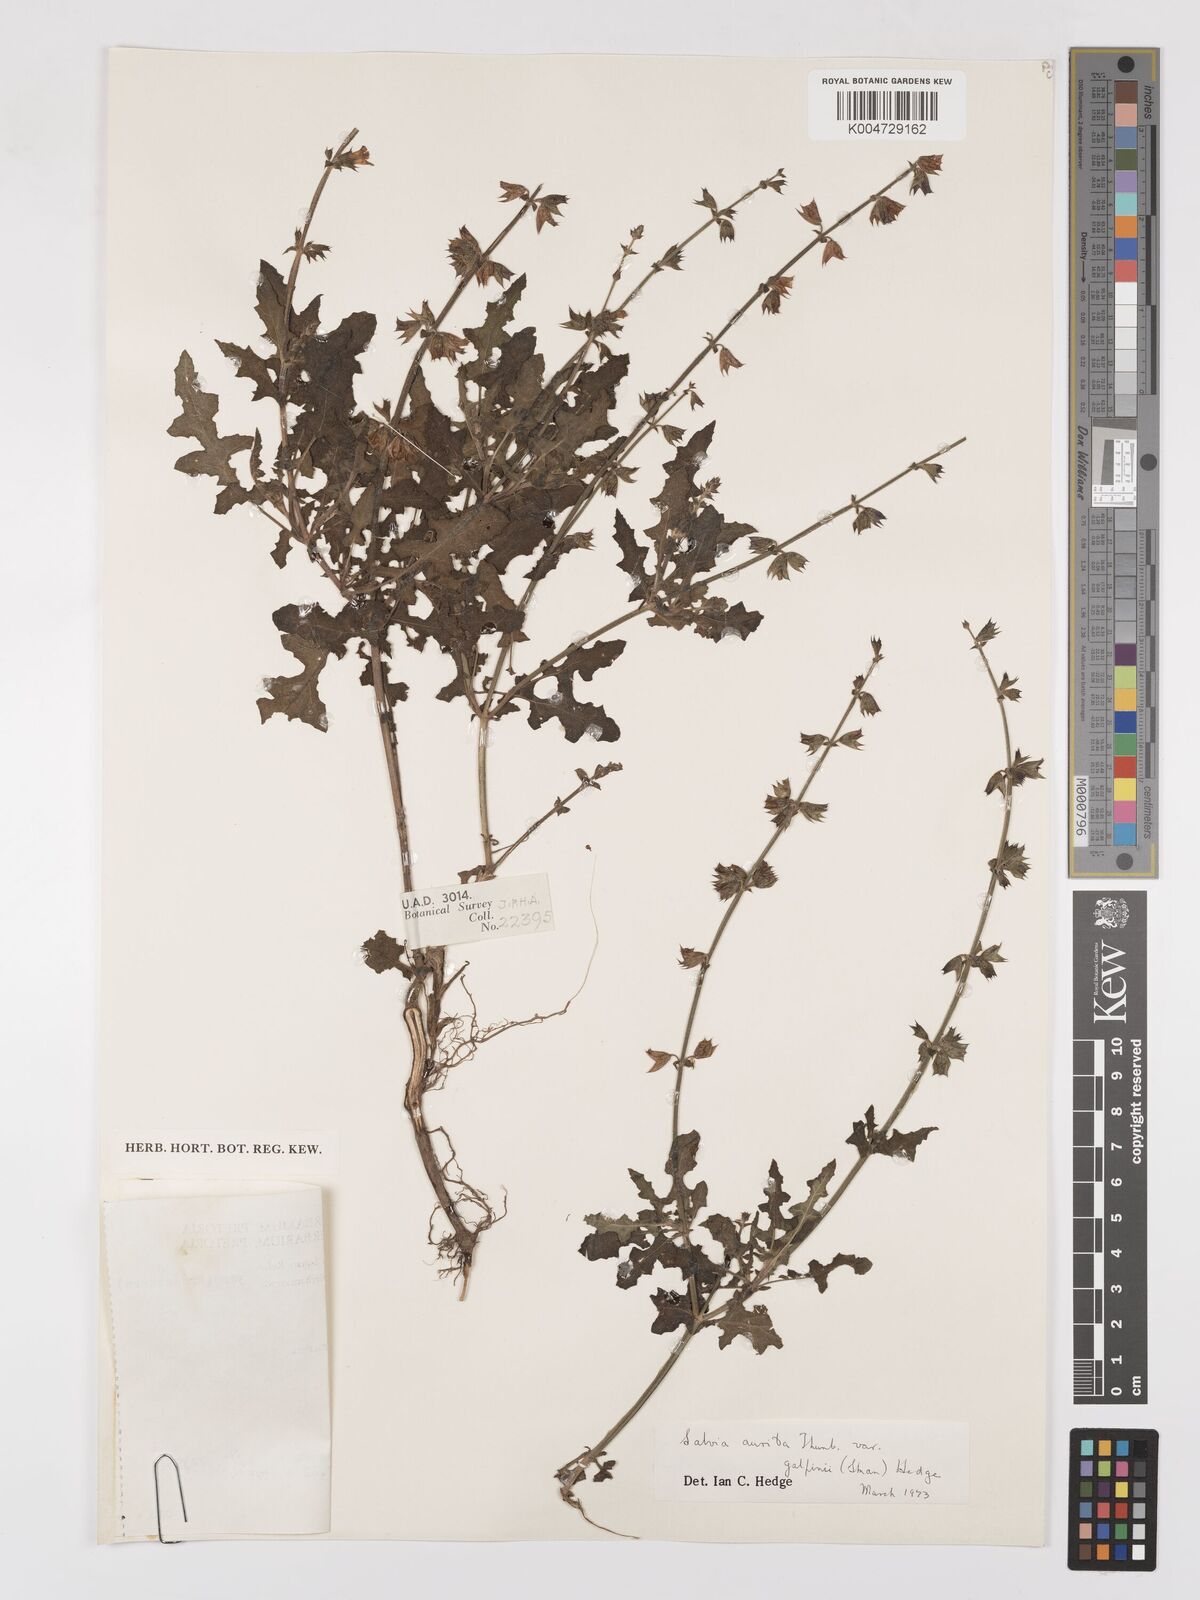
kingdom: Plantae
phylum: Tracheophyta
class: Magnoliopsida
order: Lamiales
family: Lamiaceae
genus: Salvia
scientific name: Salvia aurita
